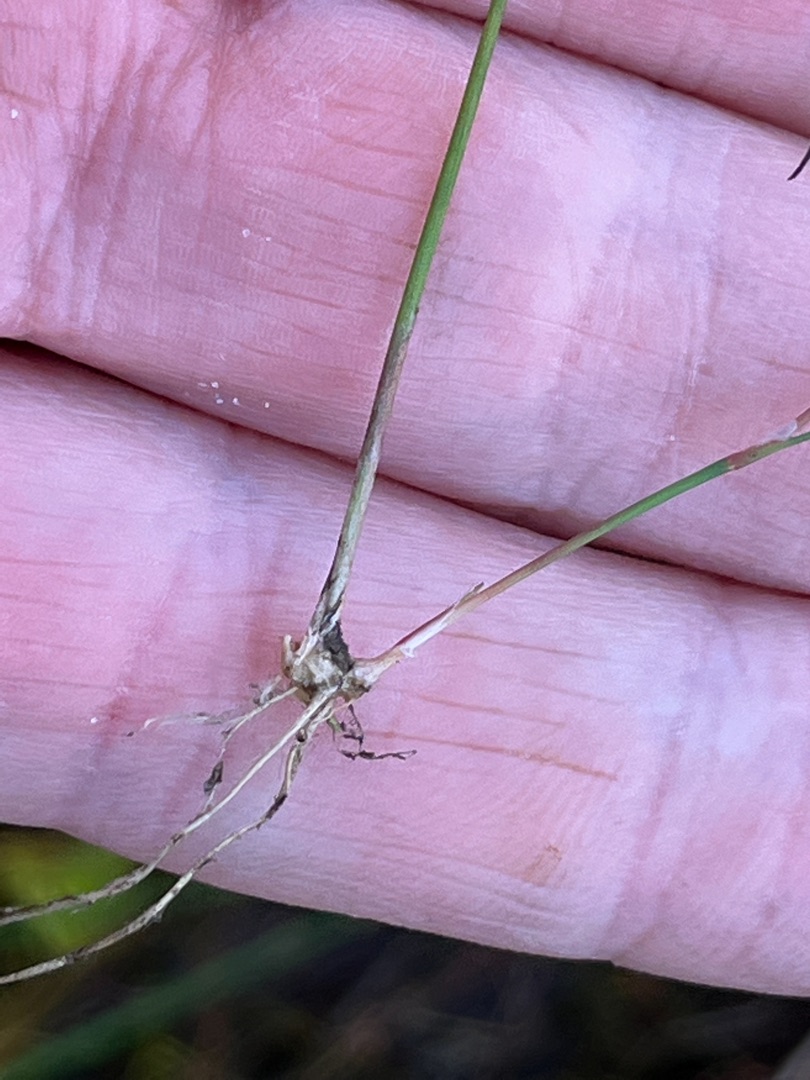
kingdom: Plantae
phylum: Tracheophyta
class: Liliopsida
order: Poales
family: Juncaceae
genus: Juncus
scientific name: Juncus bulbosus
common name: Liden siv
